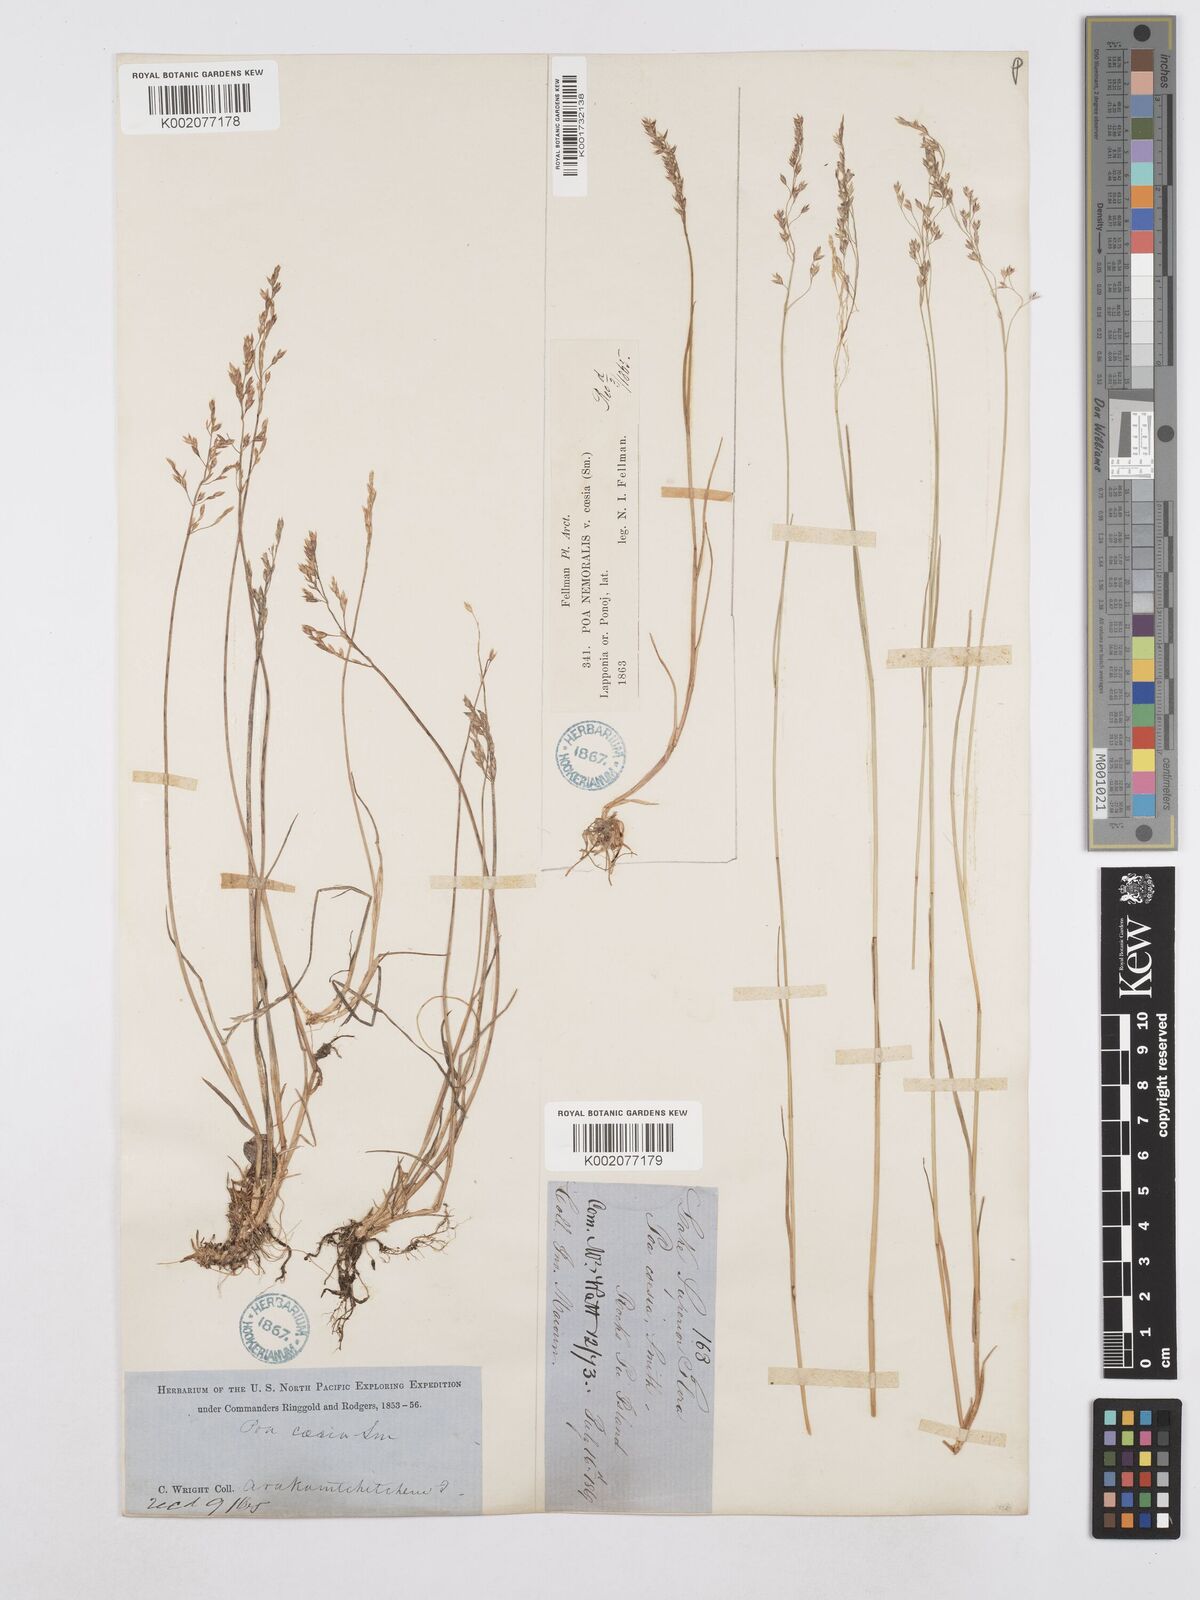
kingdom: Plantae
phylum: Tracheophyta
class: Liliopsida
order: Poales
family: Poaceae
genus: Poa
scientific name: Poa nemoralis
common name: Wood bluegrass
